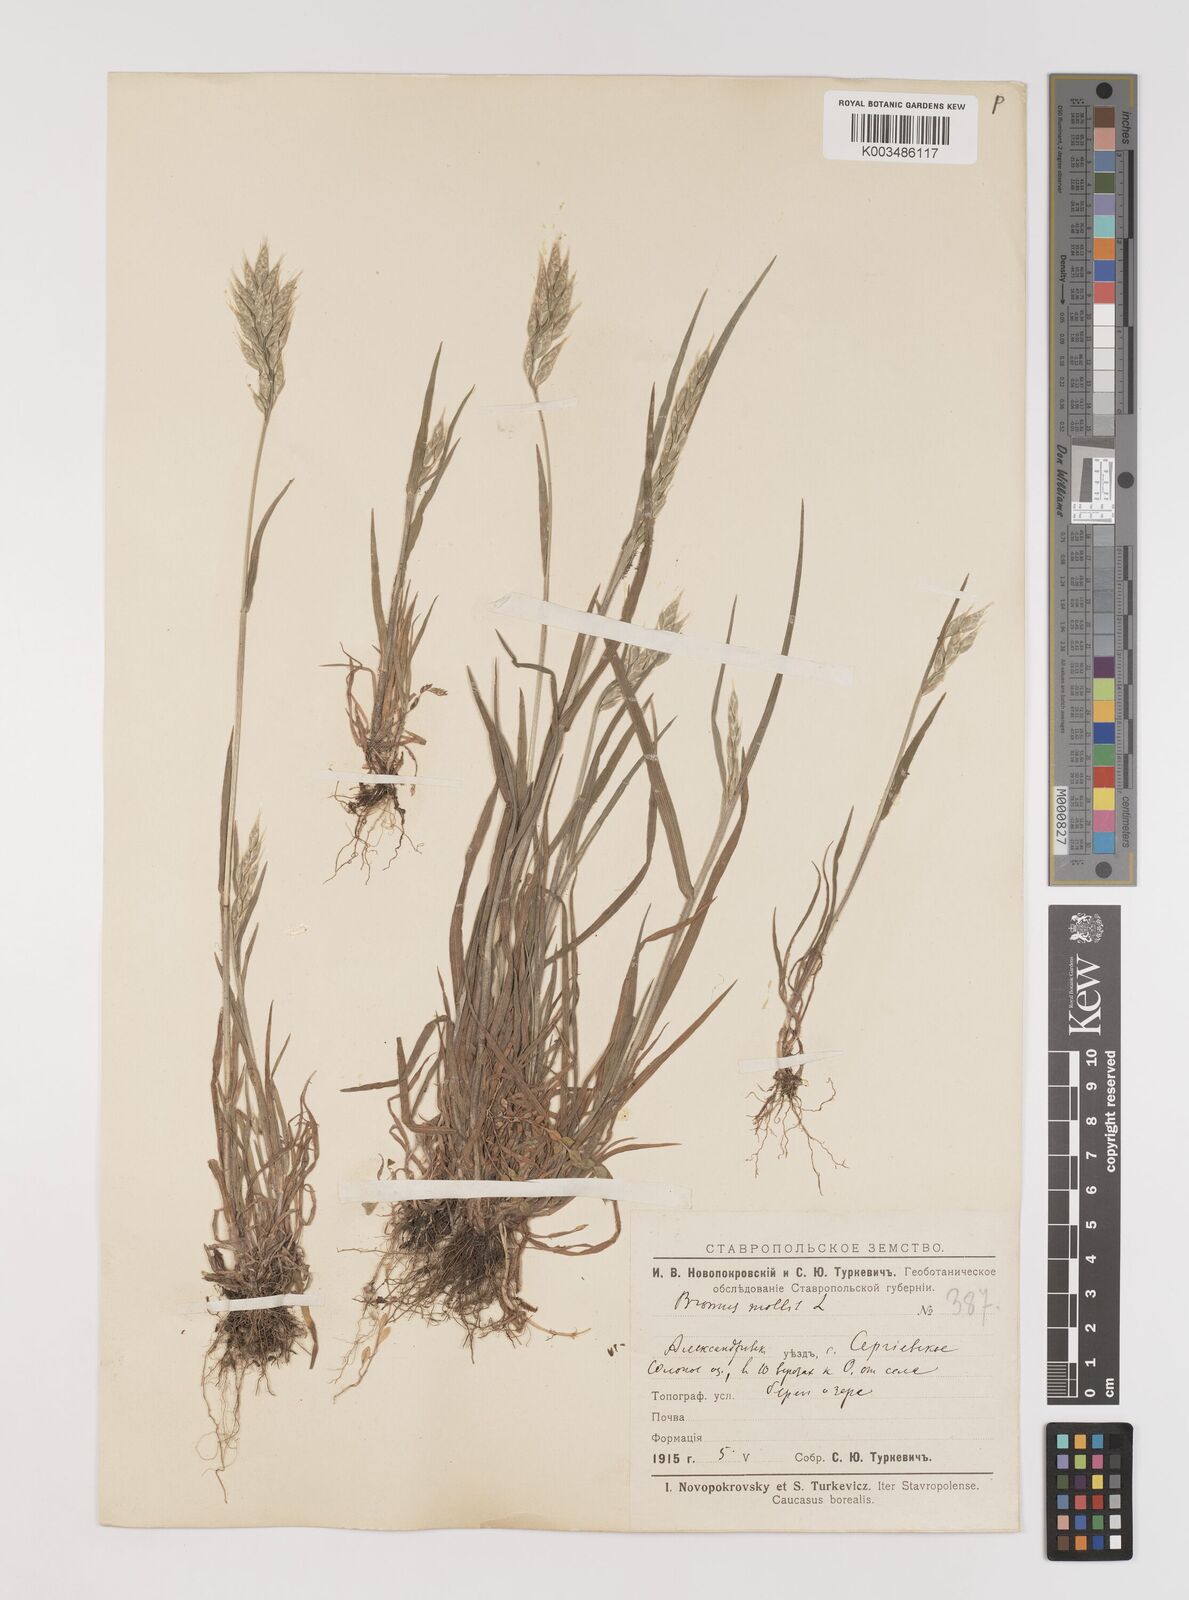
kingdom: Plantae
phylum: Tracheophyta
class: Liliopsida
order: Poales
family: Poaceae
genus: Bromus
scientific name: Bromus hordeaceus
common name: Soft brome
